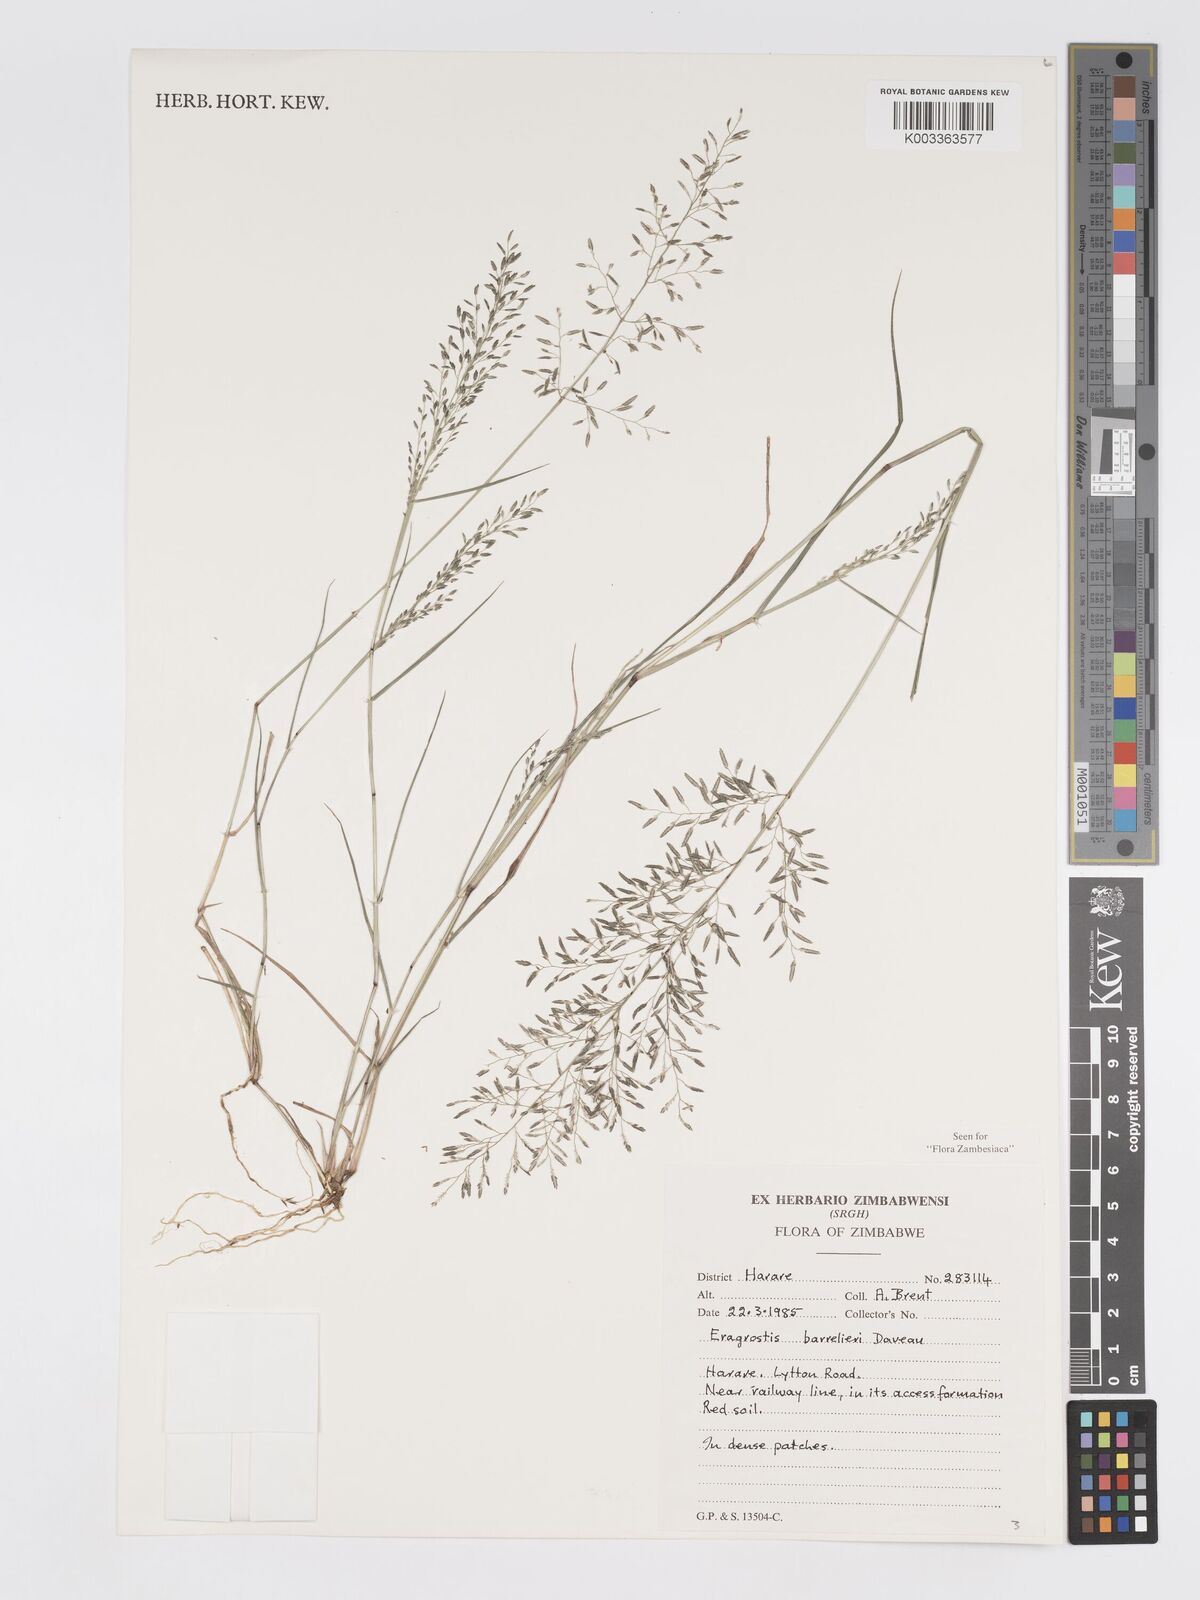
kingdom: Plantae
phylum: Tracheophyta
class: Liliopsida
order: Poales
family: Poaceae
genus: Eragrostis
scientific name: Eragrostis barrelieri
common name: Mediterranean lovegrass
